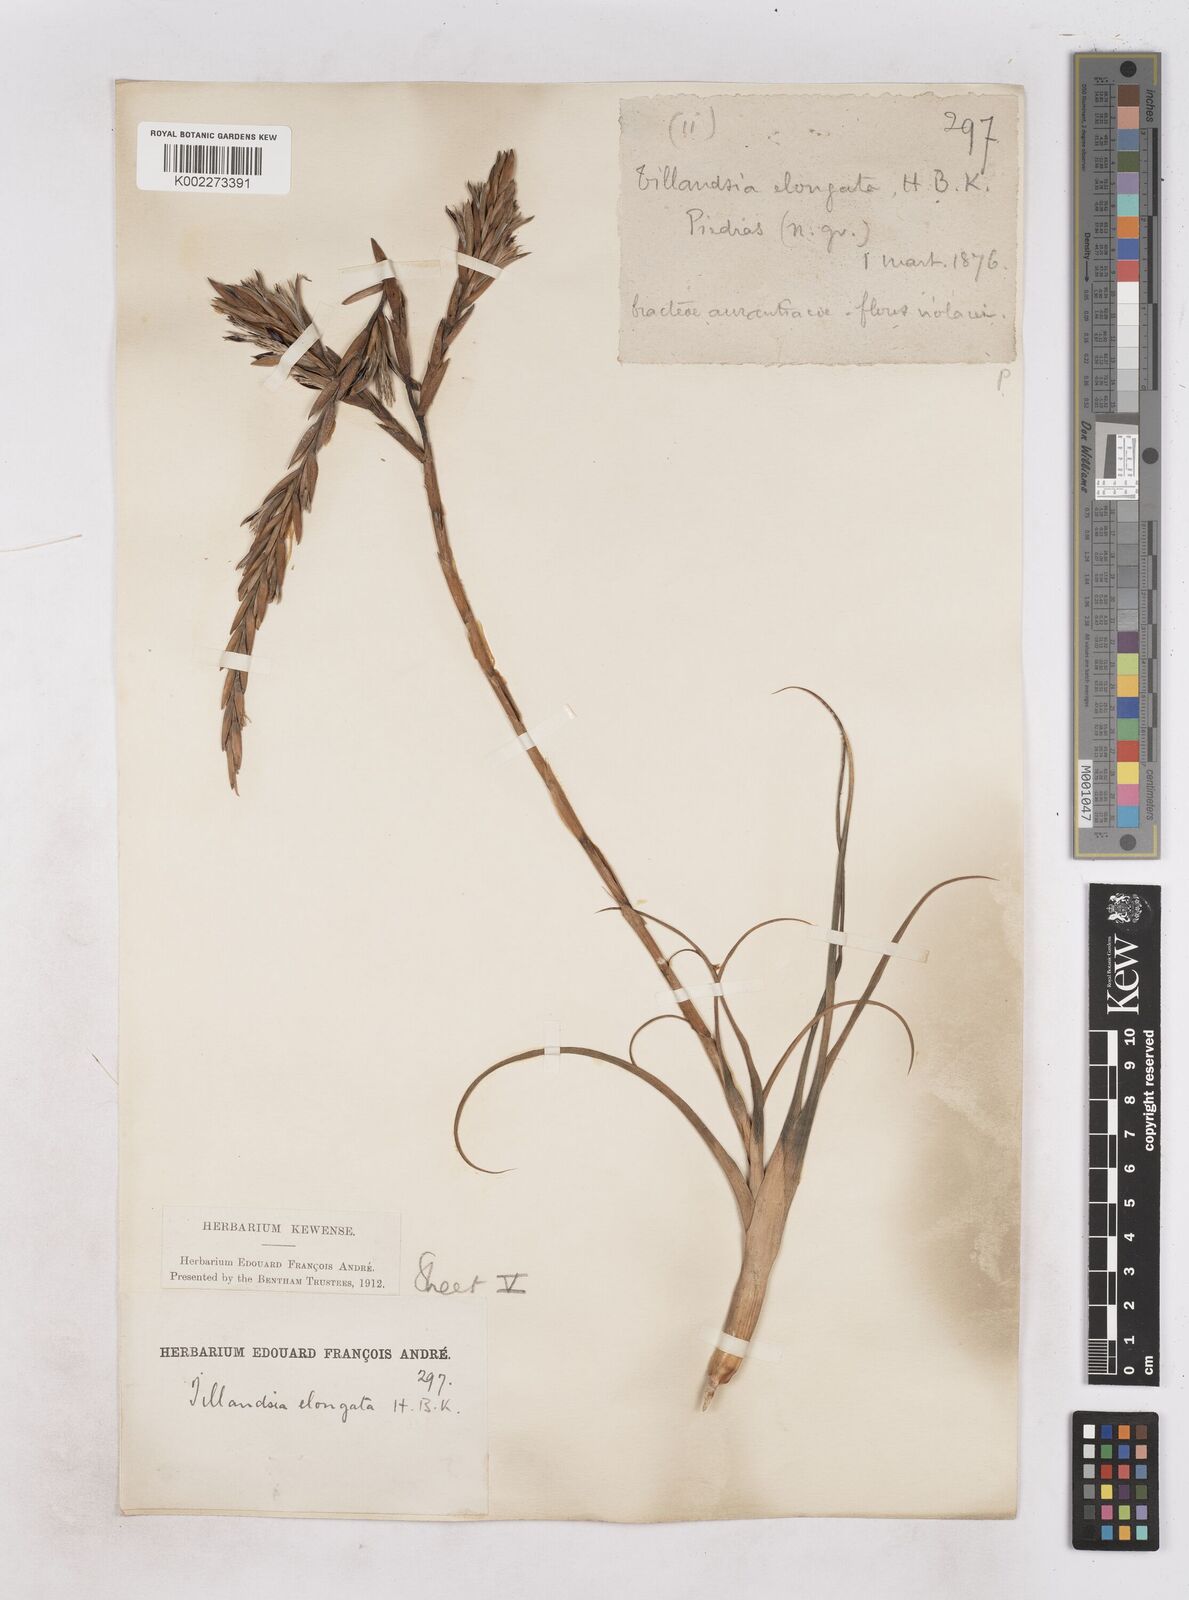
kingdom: Plantae
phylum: Tracheophyta
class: Liliopsida
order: Poales
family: Bromeliaceae
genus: Tillandsia
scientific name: Tillandsia elongata
